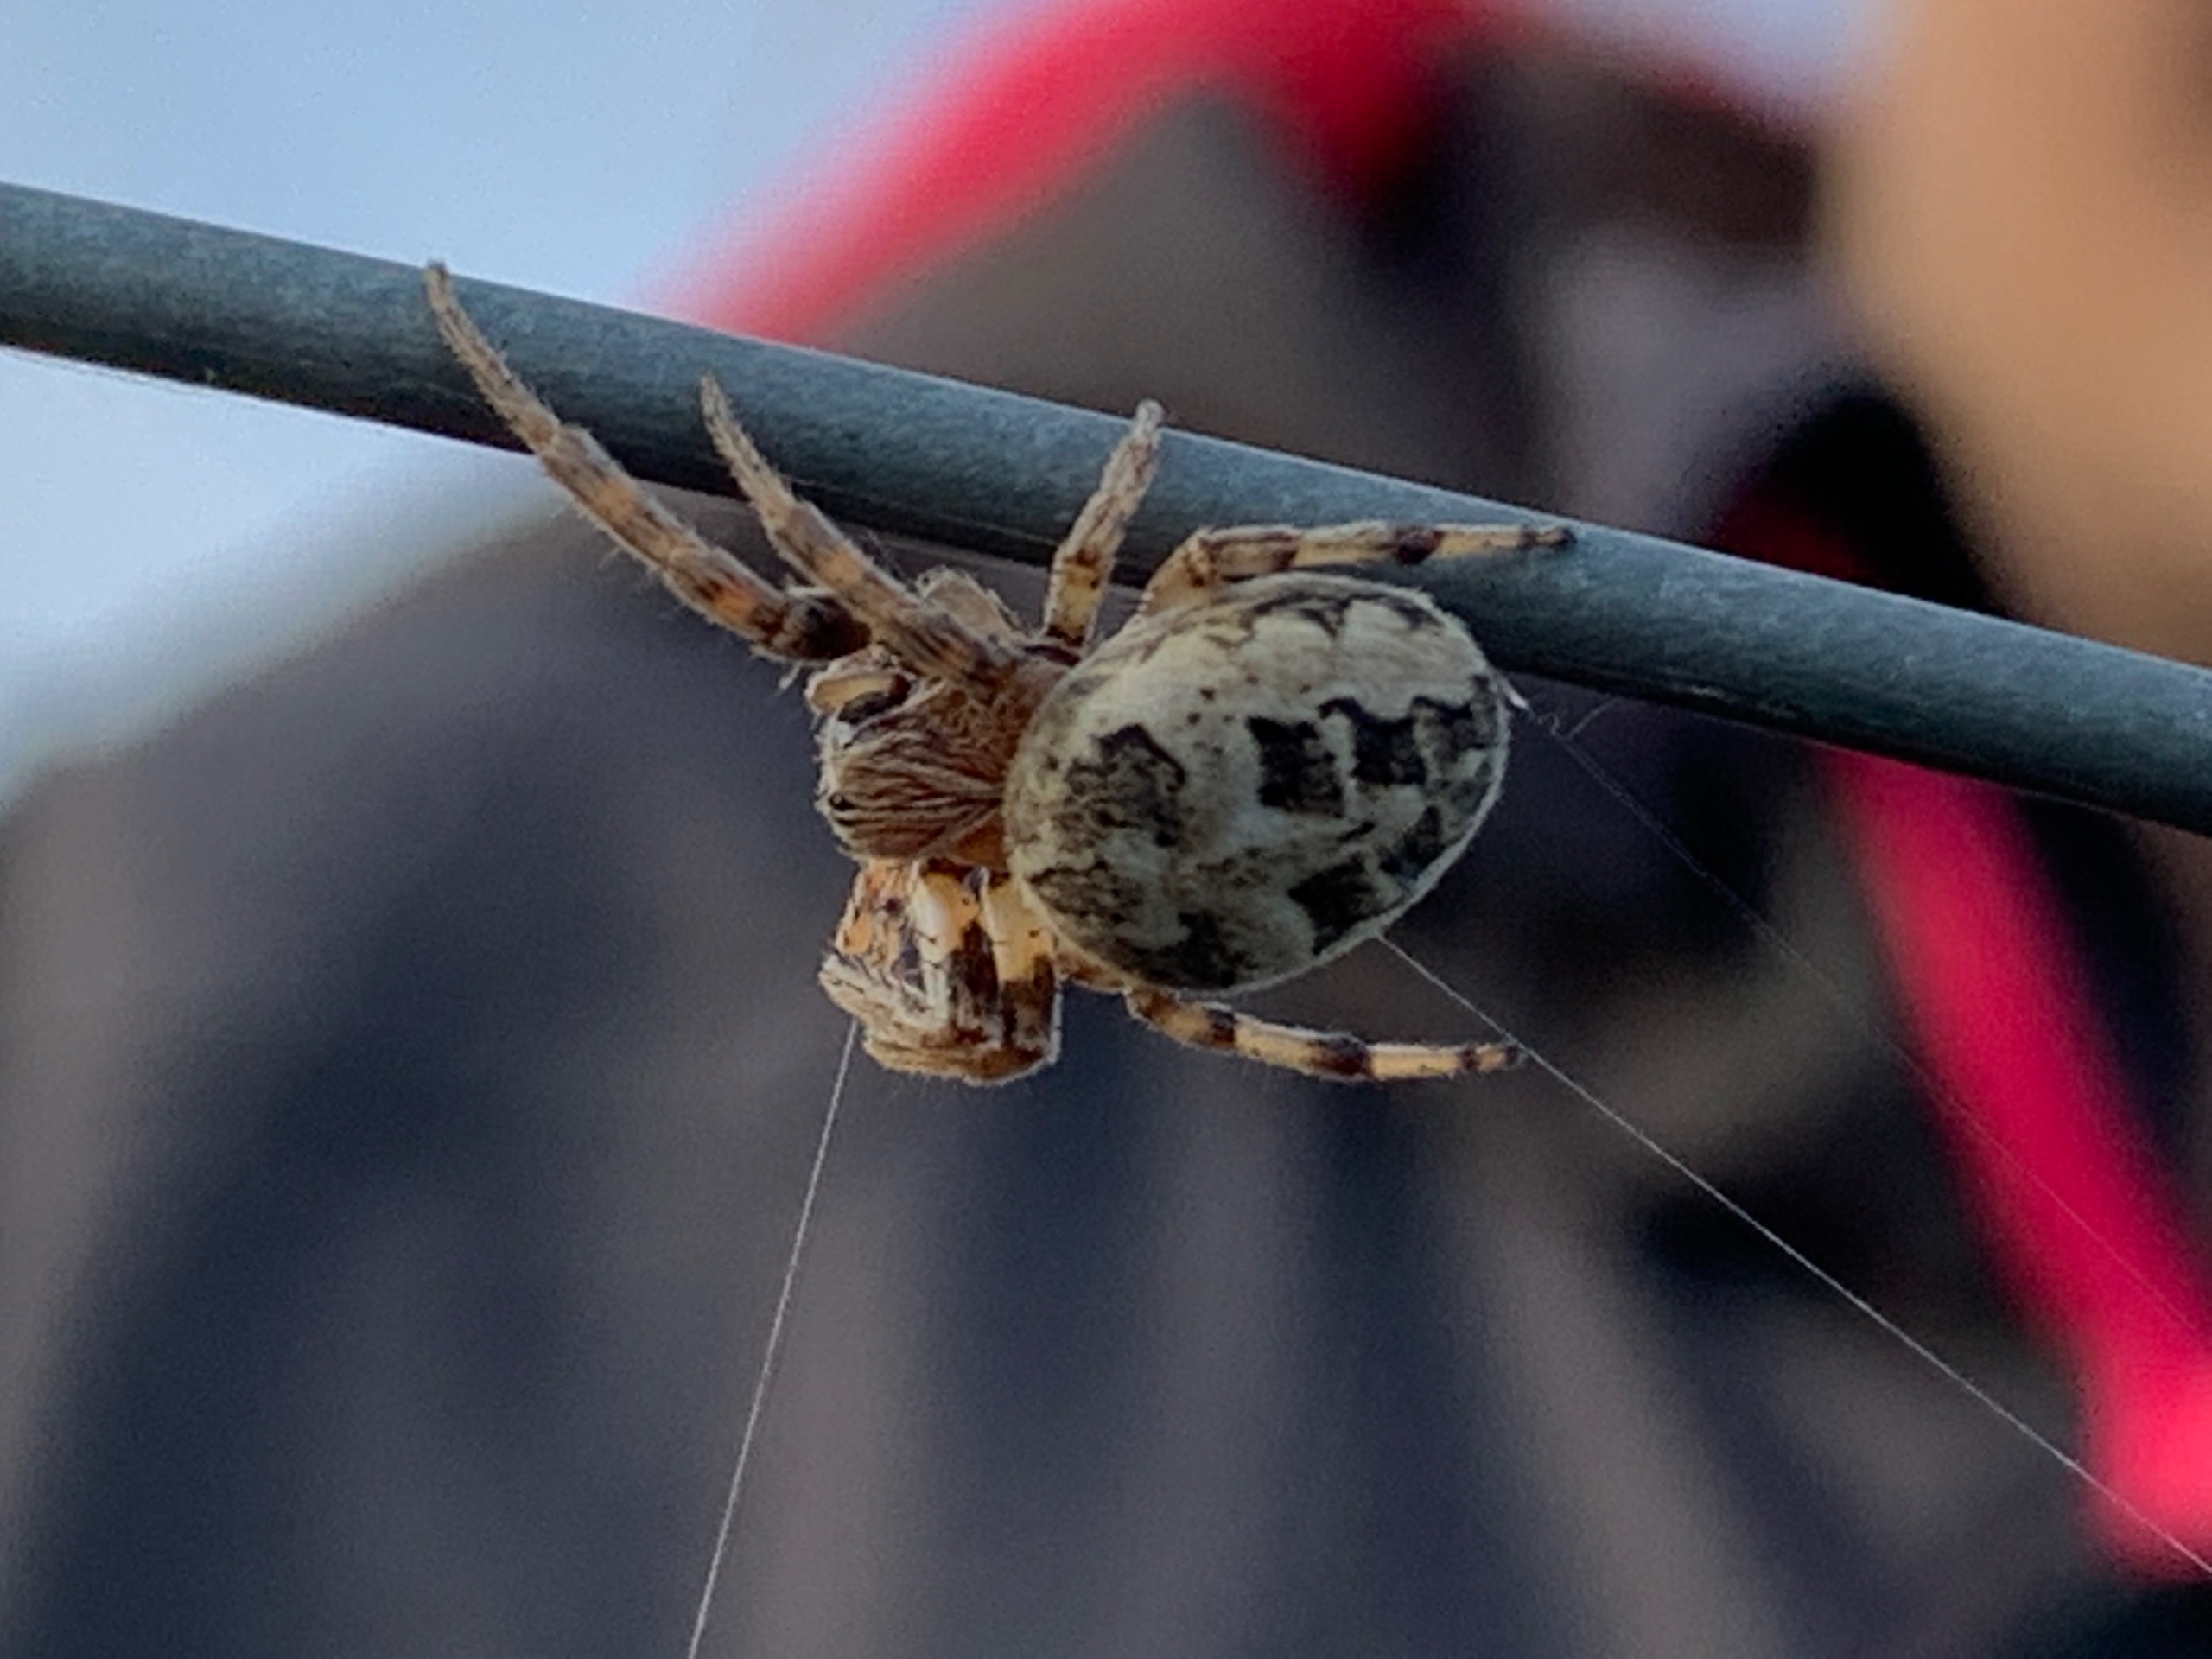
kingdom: Animalia
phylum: Arthropoda
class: Arachnida
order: Araneae
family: Araneidae
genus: Larinioides
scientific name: Larinioides cornutus
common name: Sivhjulspinder
